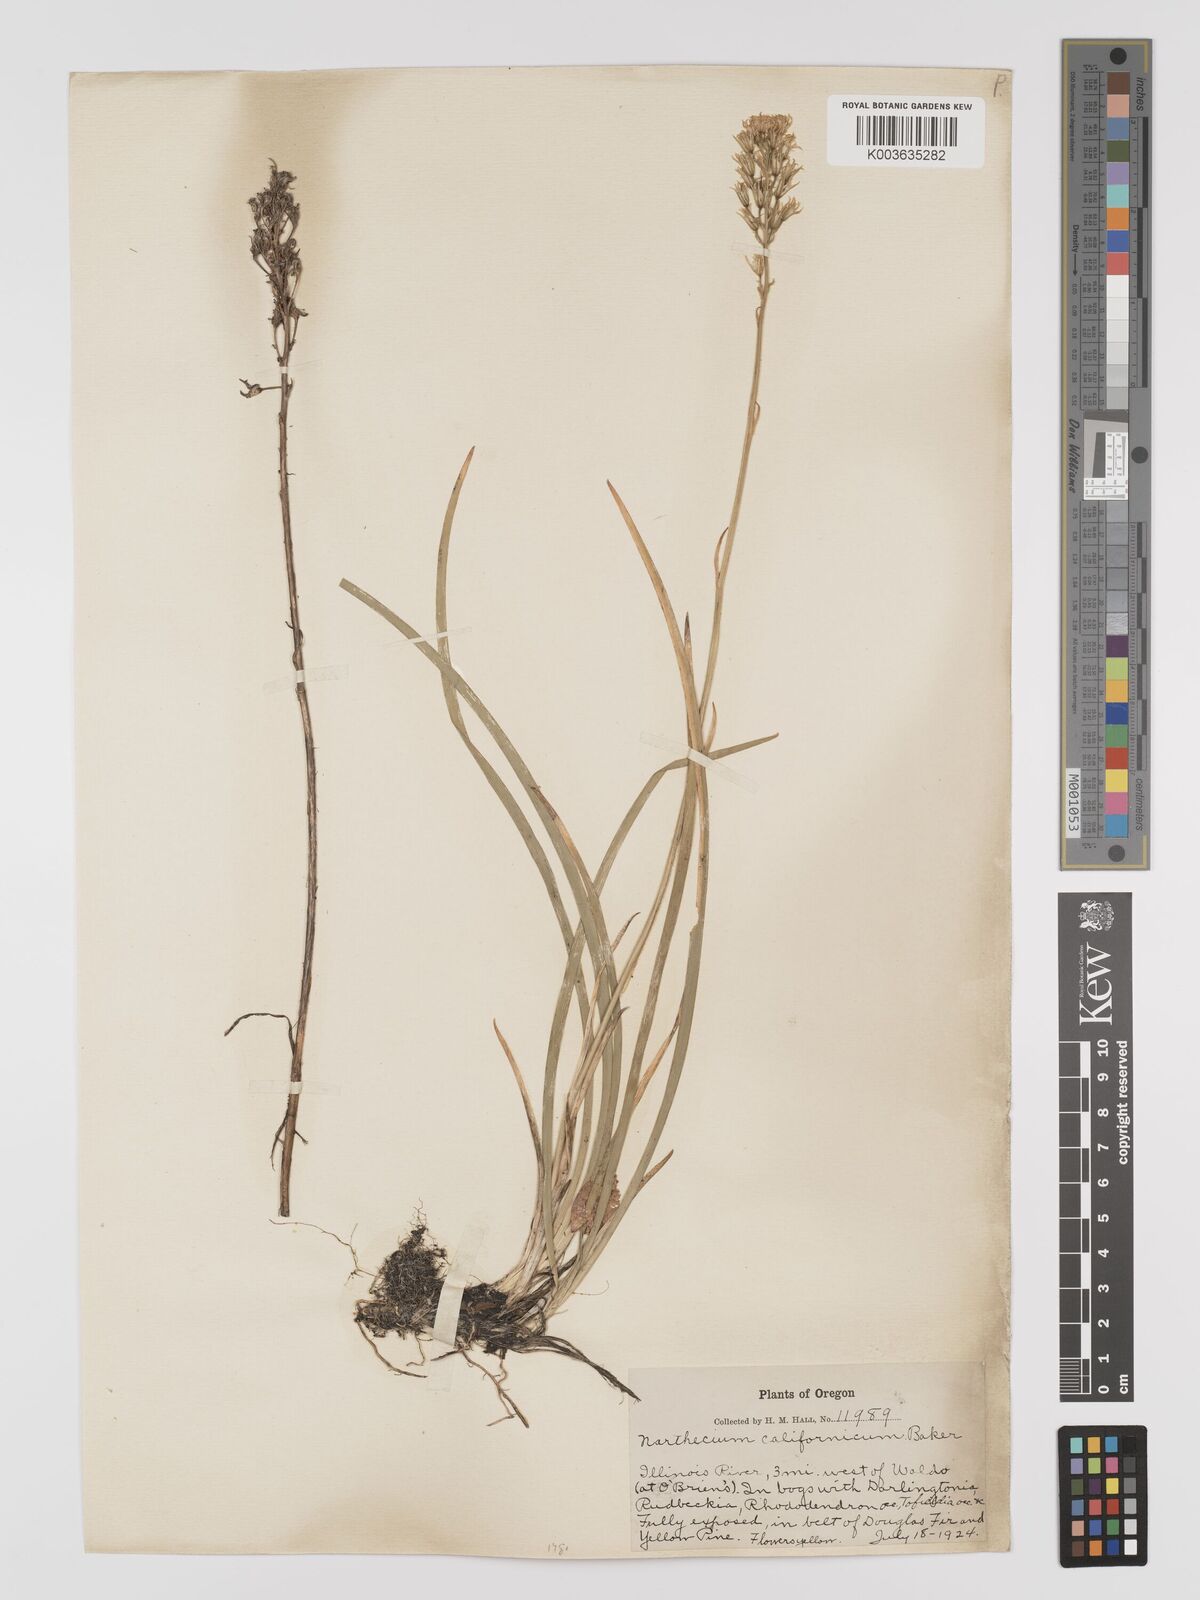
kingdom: Plantae
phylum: Tracheophyta
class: Liliopsida
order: Dioscoreales
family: Nartheciaceae
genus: Narthecium
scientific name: Narthecium californicum
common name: California bog-asphodel
